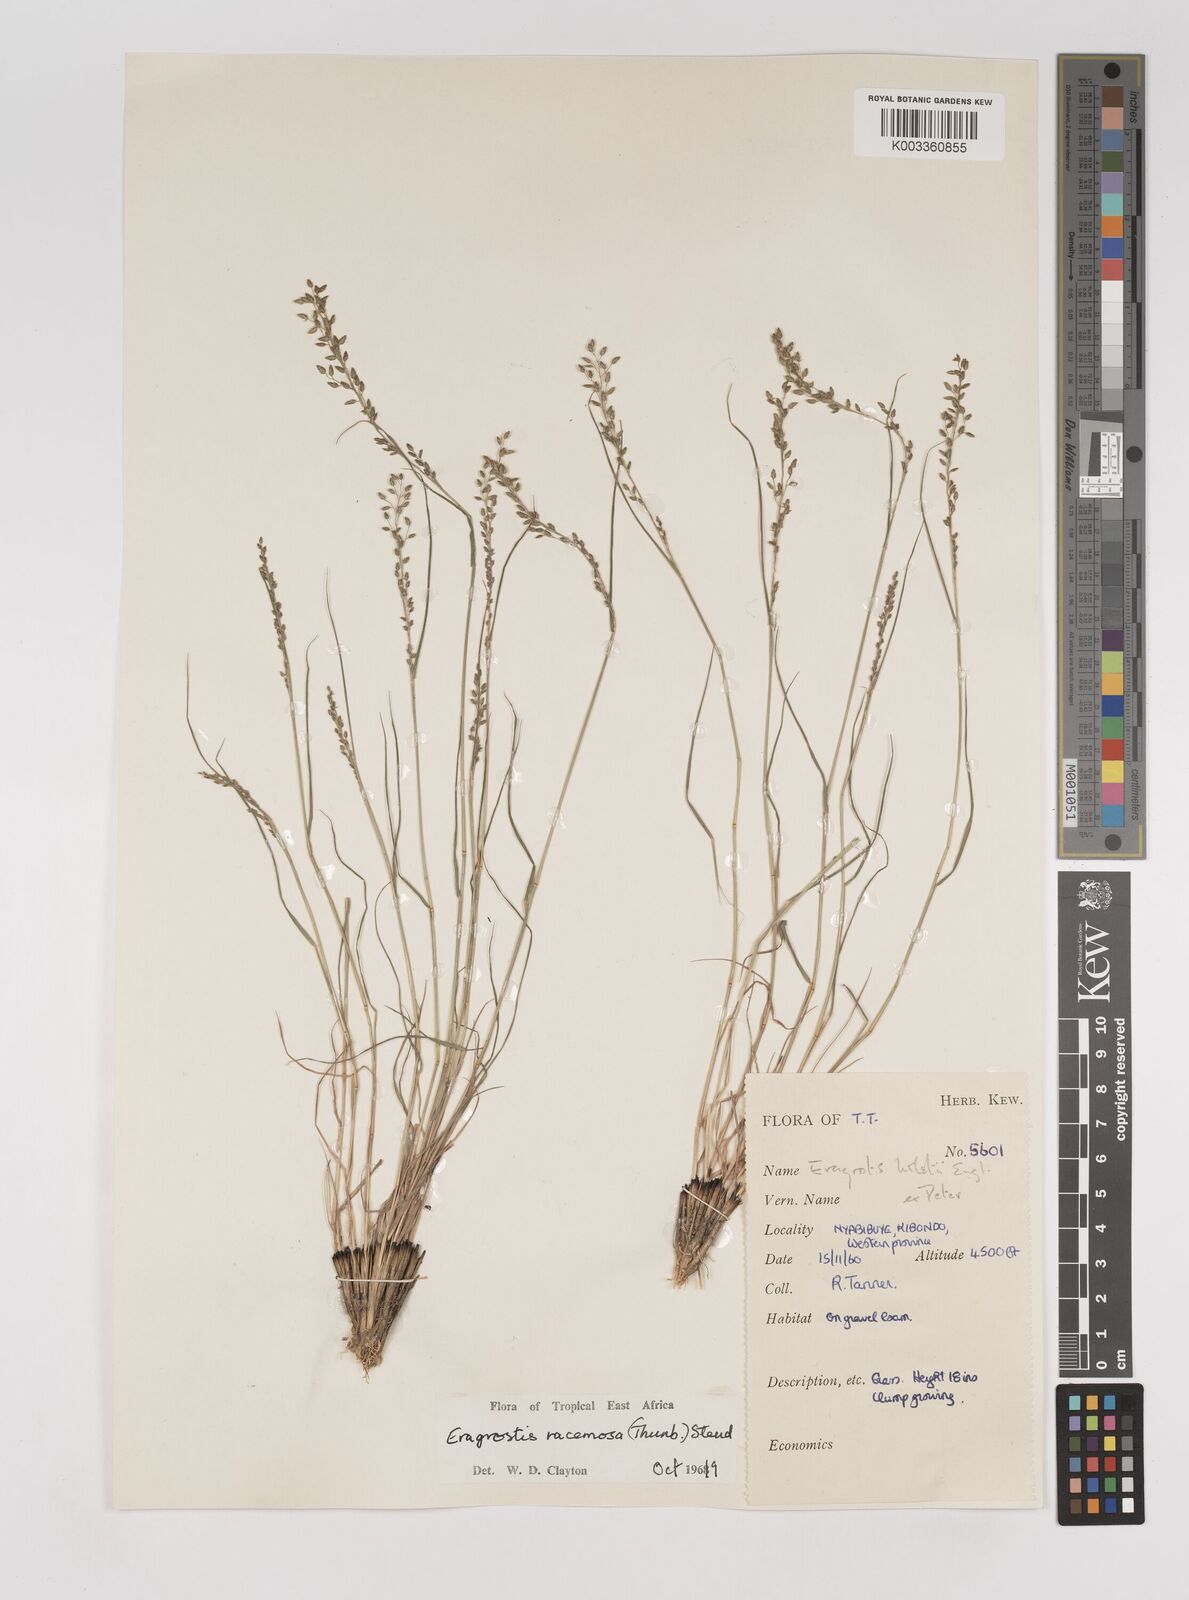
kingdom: Plantae
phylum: Tracheophyta
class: Liliopsida
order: Poales
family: Poaceae
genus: Eragrostis
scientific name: Eragrostis racemosa
